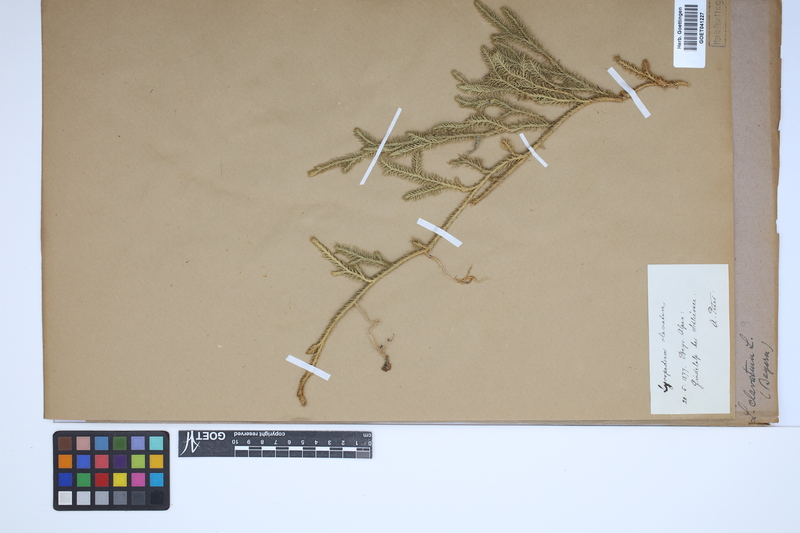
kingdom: Plantae
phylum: Tracheophyta
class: Lycopodiopsida
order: Lycopodiales
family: Lycopodiaceae
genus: Lycopodium
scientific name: Lycopodium clavatum
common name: Stag's-horn clubmoss
